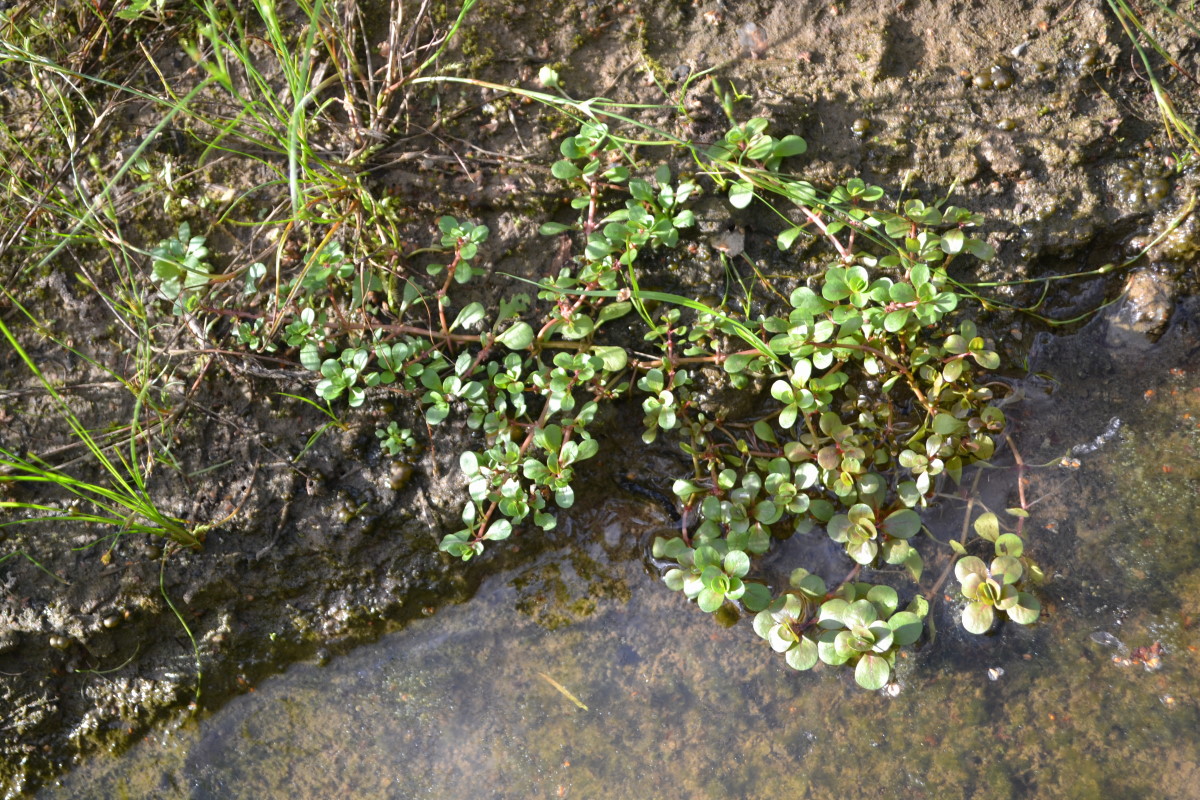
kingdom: Plantae
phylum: Tracheophyta
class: Magnoliopsida
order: Myrtales
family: Lythraceae
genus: Lythrum
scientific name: Lythrum portula
